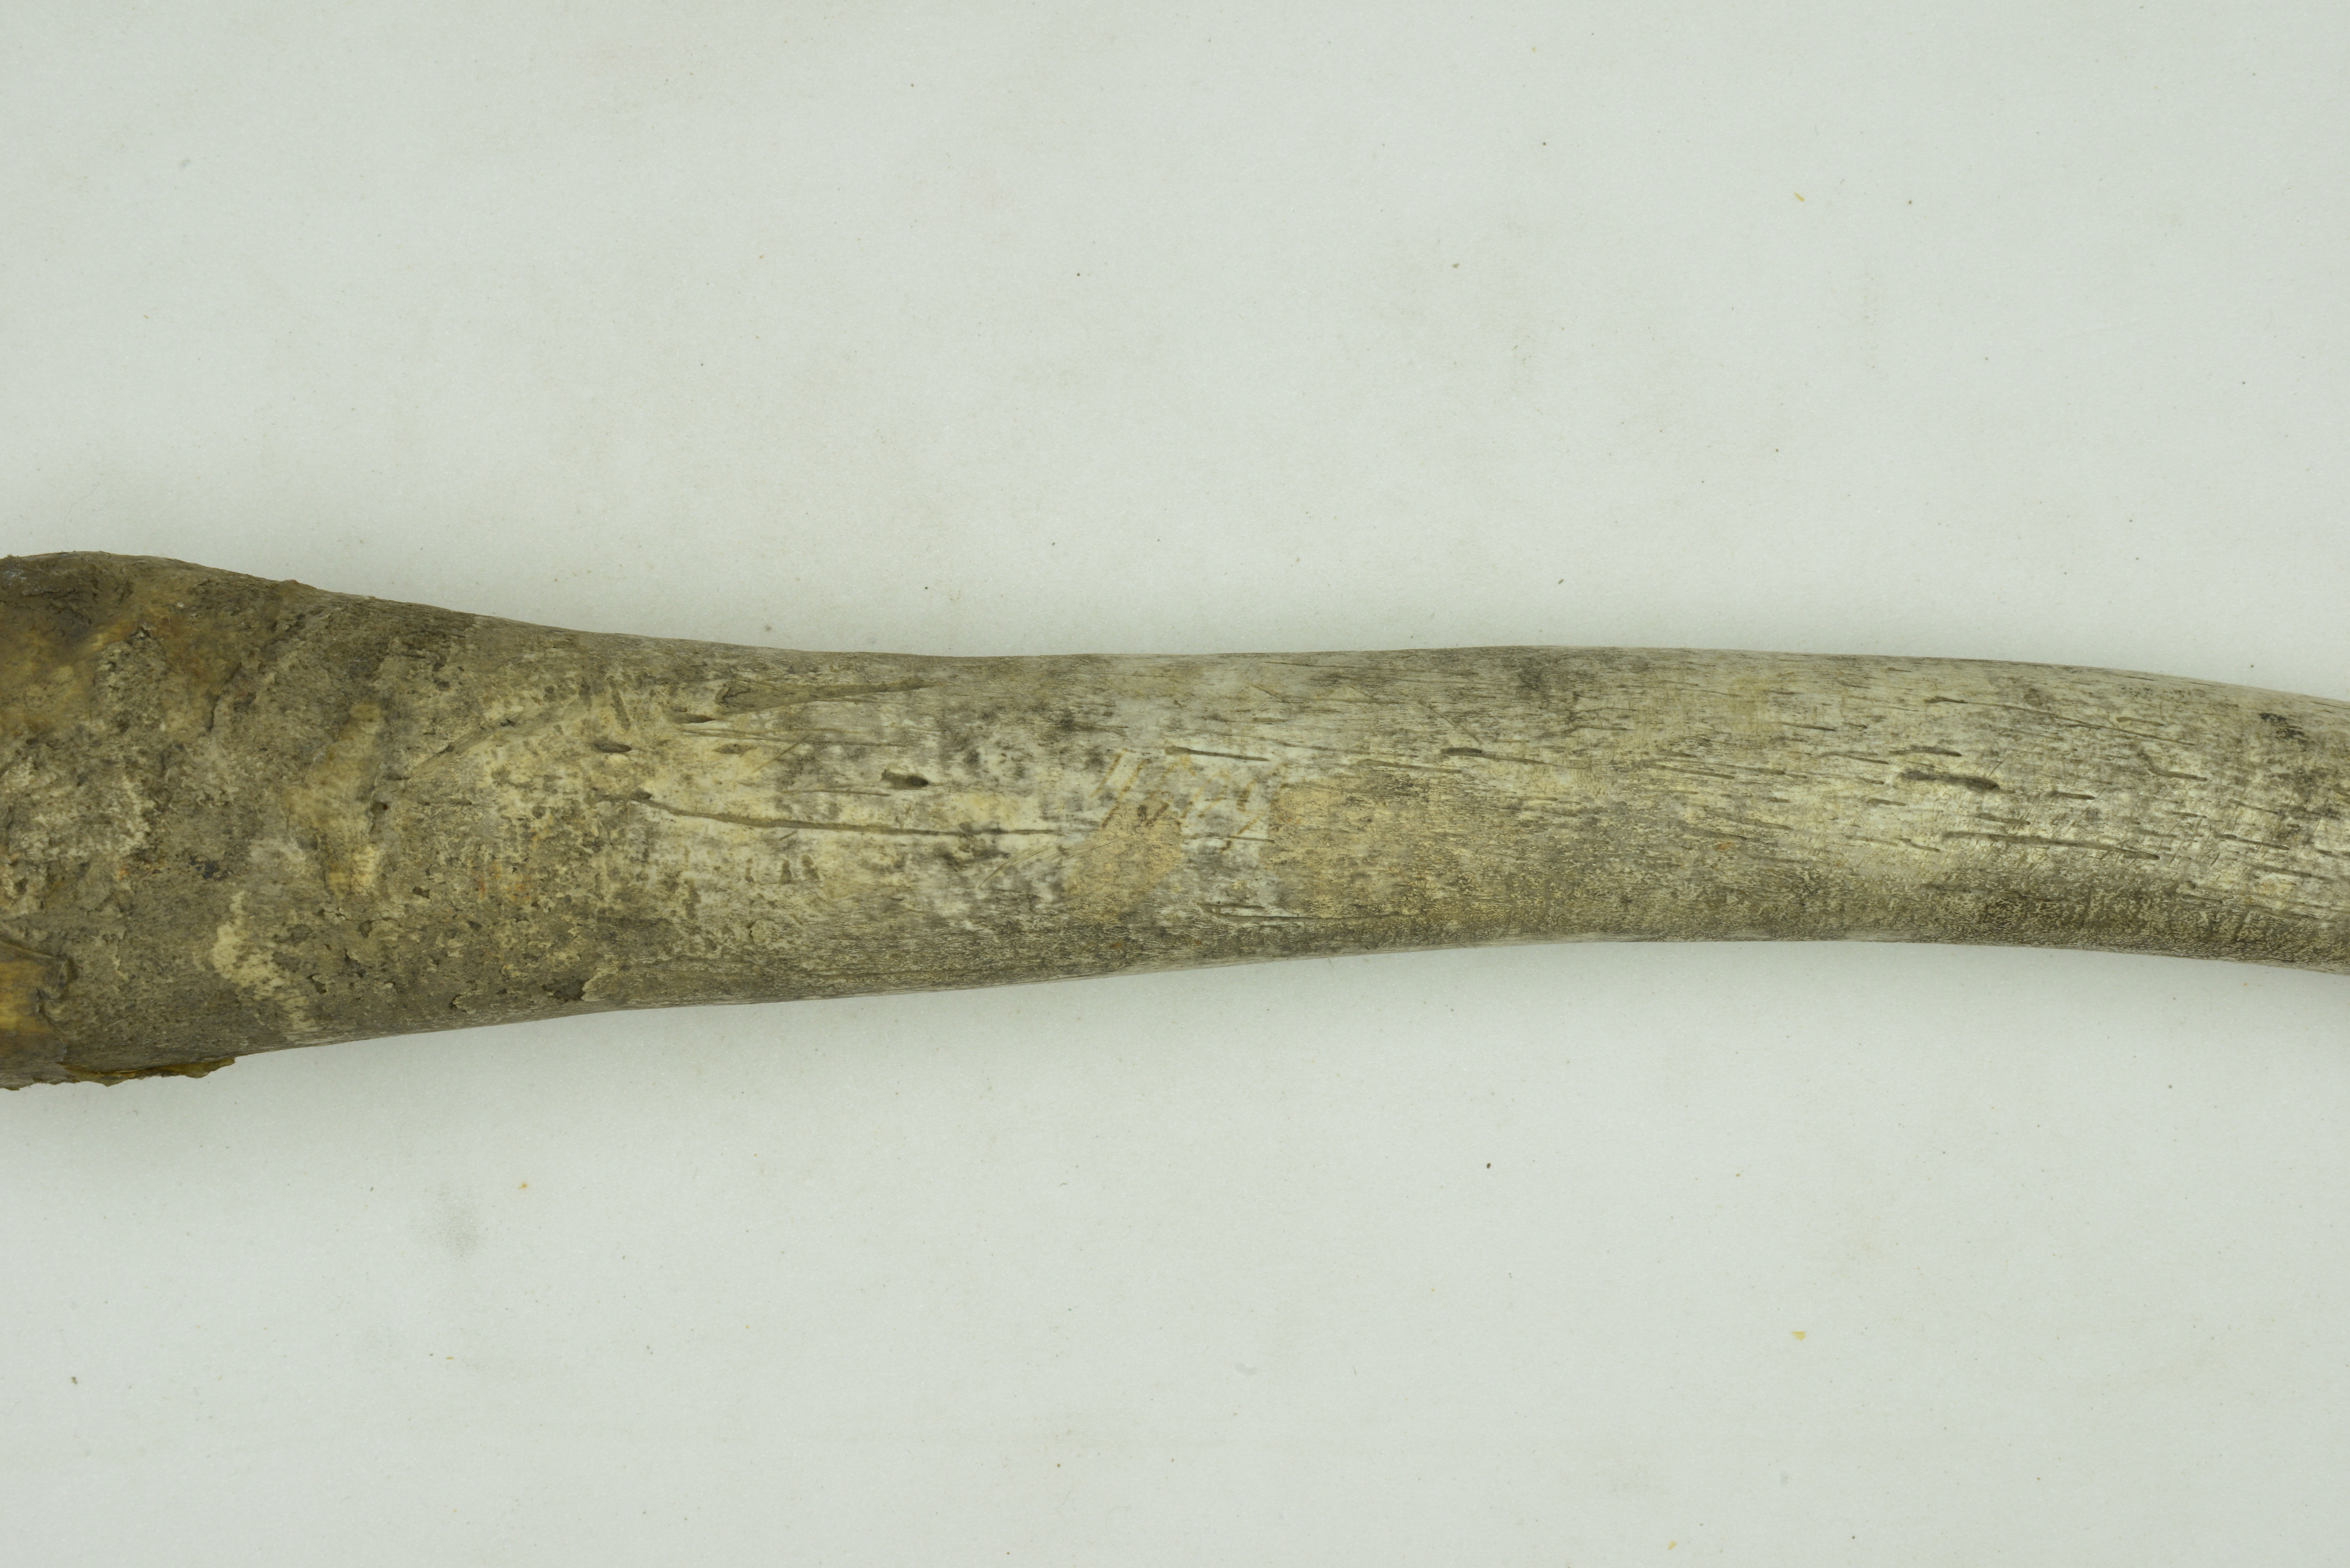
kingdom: Animalia
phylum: Chordata
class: Mammalia
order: Carnivora
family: Odobenidae
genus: Odobenus
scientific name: Odobenus rosmarus
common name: Walrus
